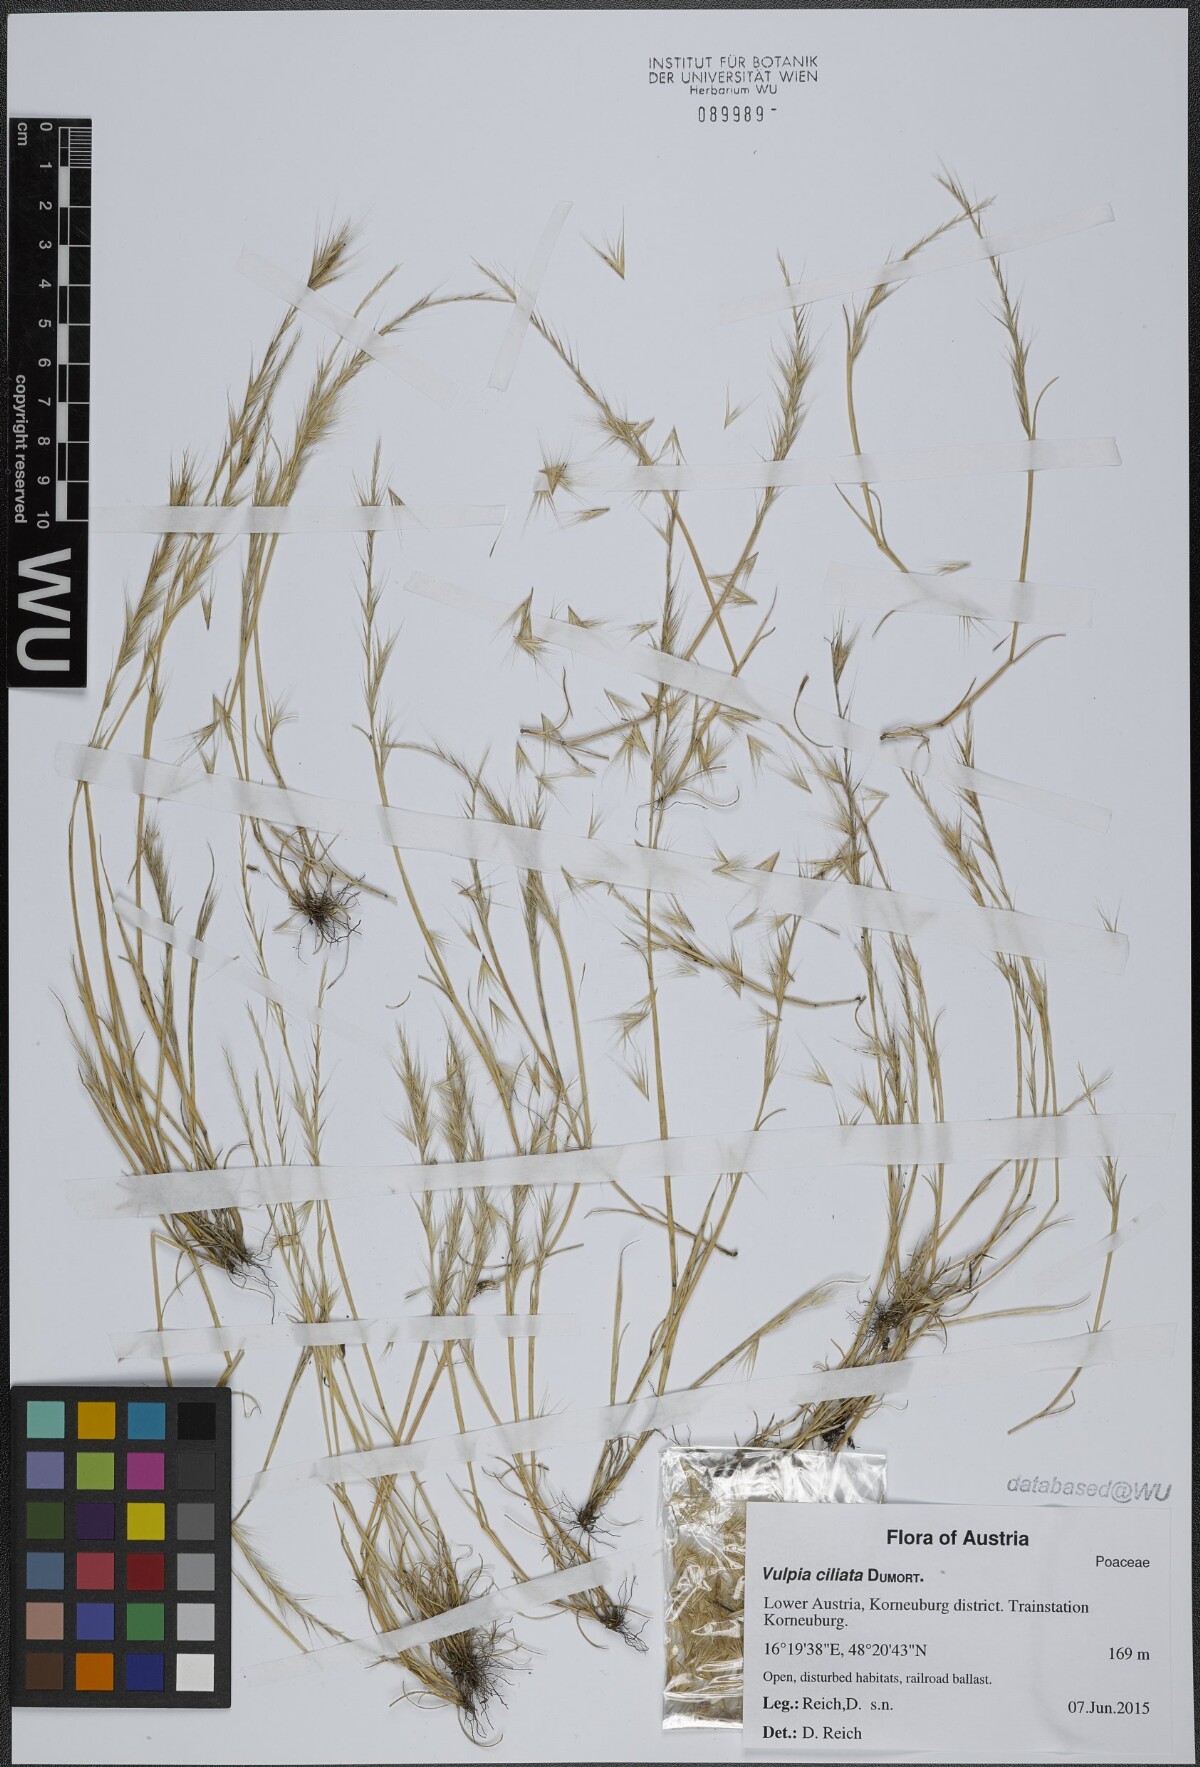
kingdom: Plantae
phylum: Tracheophyta
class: Liliopsida
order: Poales
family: Poaceae
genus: Festuca
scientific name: Festuca ambigua
